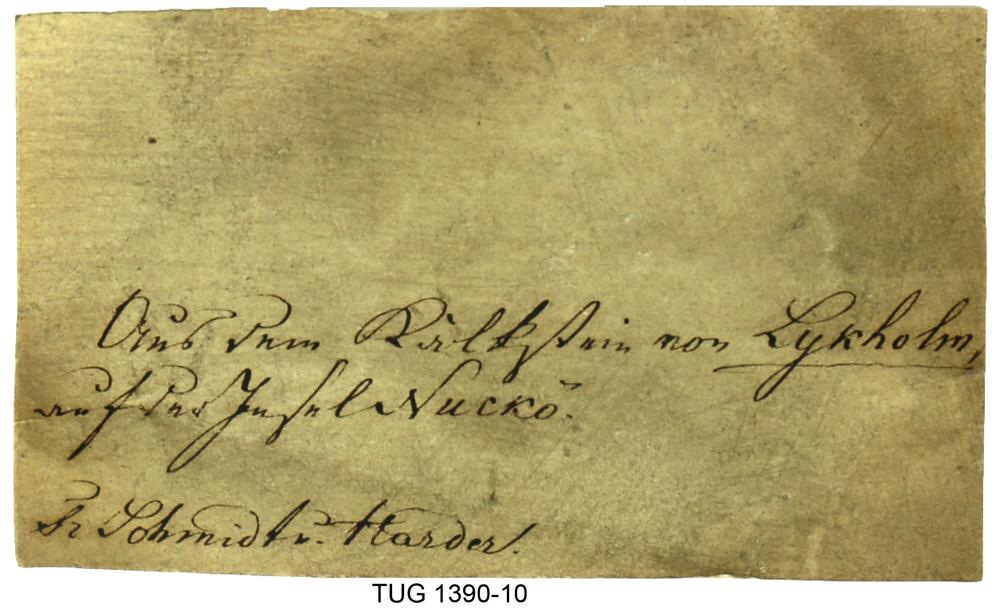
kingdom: Animalia
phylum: Mollusca
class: Cephalopoda
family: Protophragmoceratidae
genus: Kiaeroceras
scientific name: Kiaeroceras
